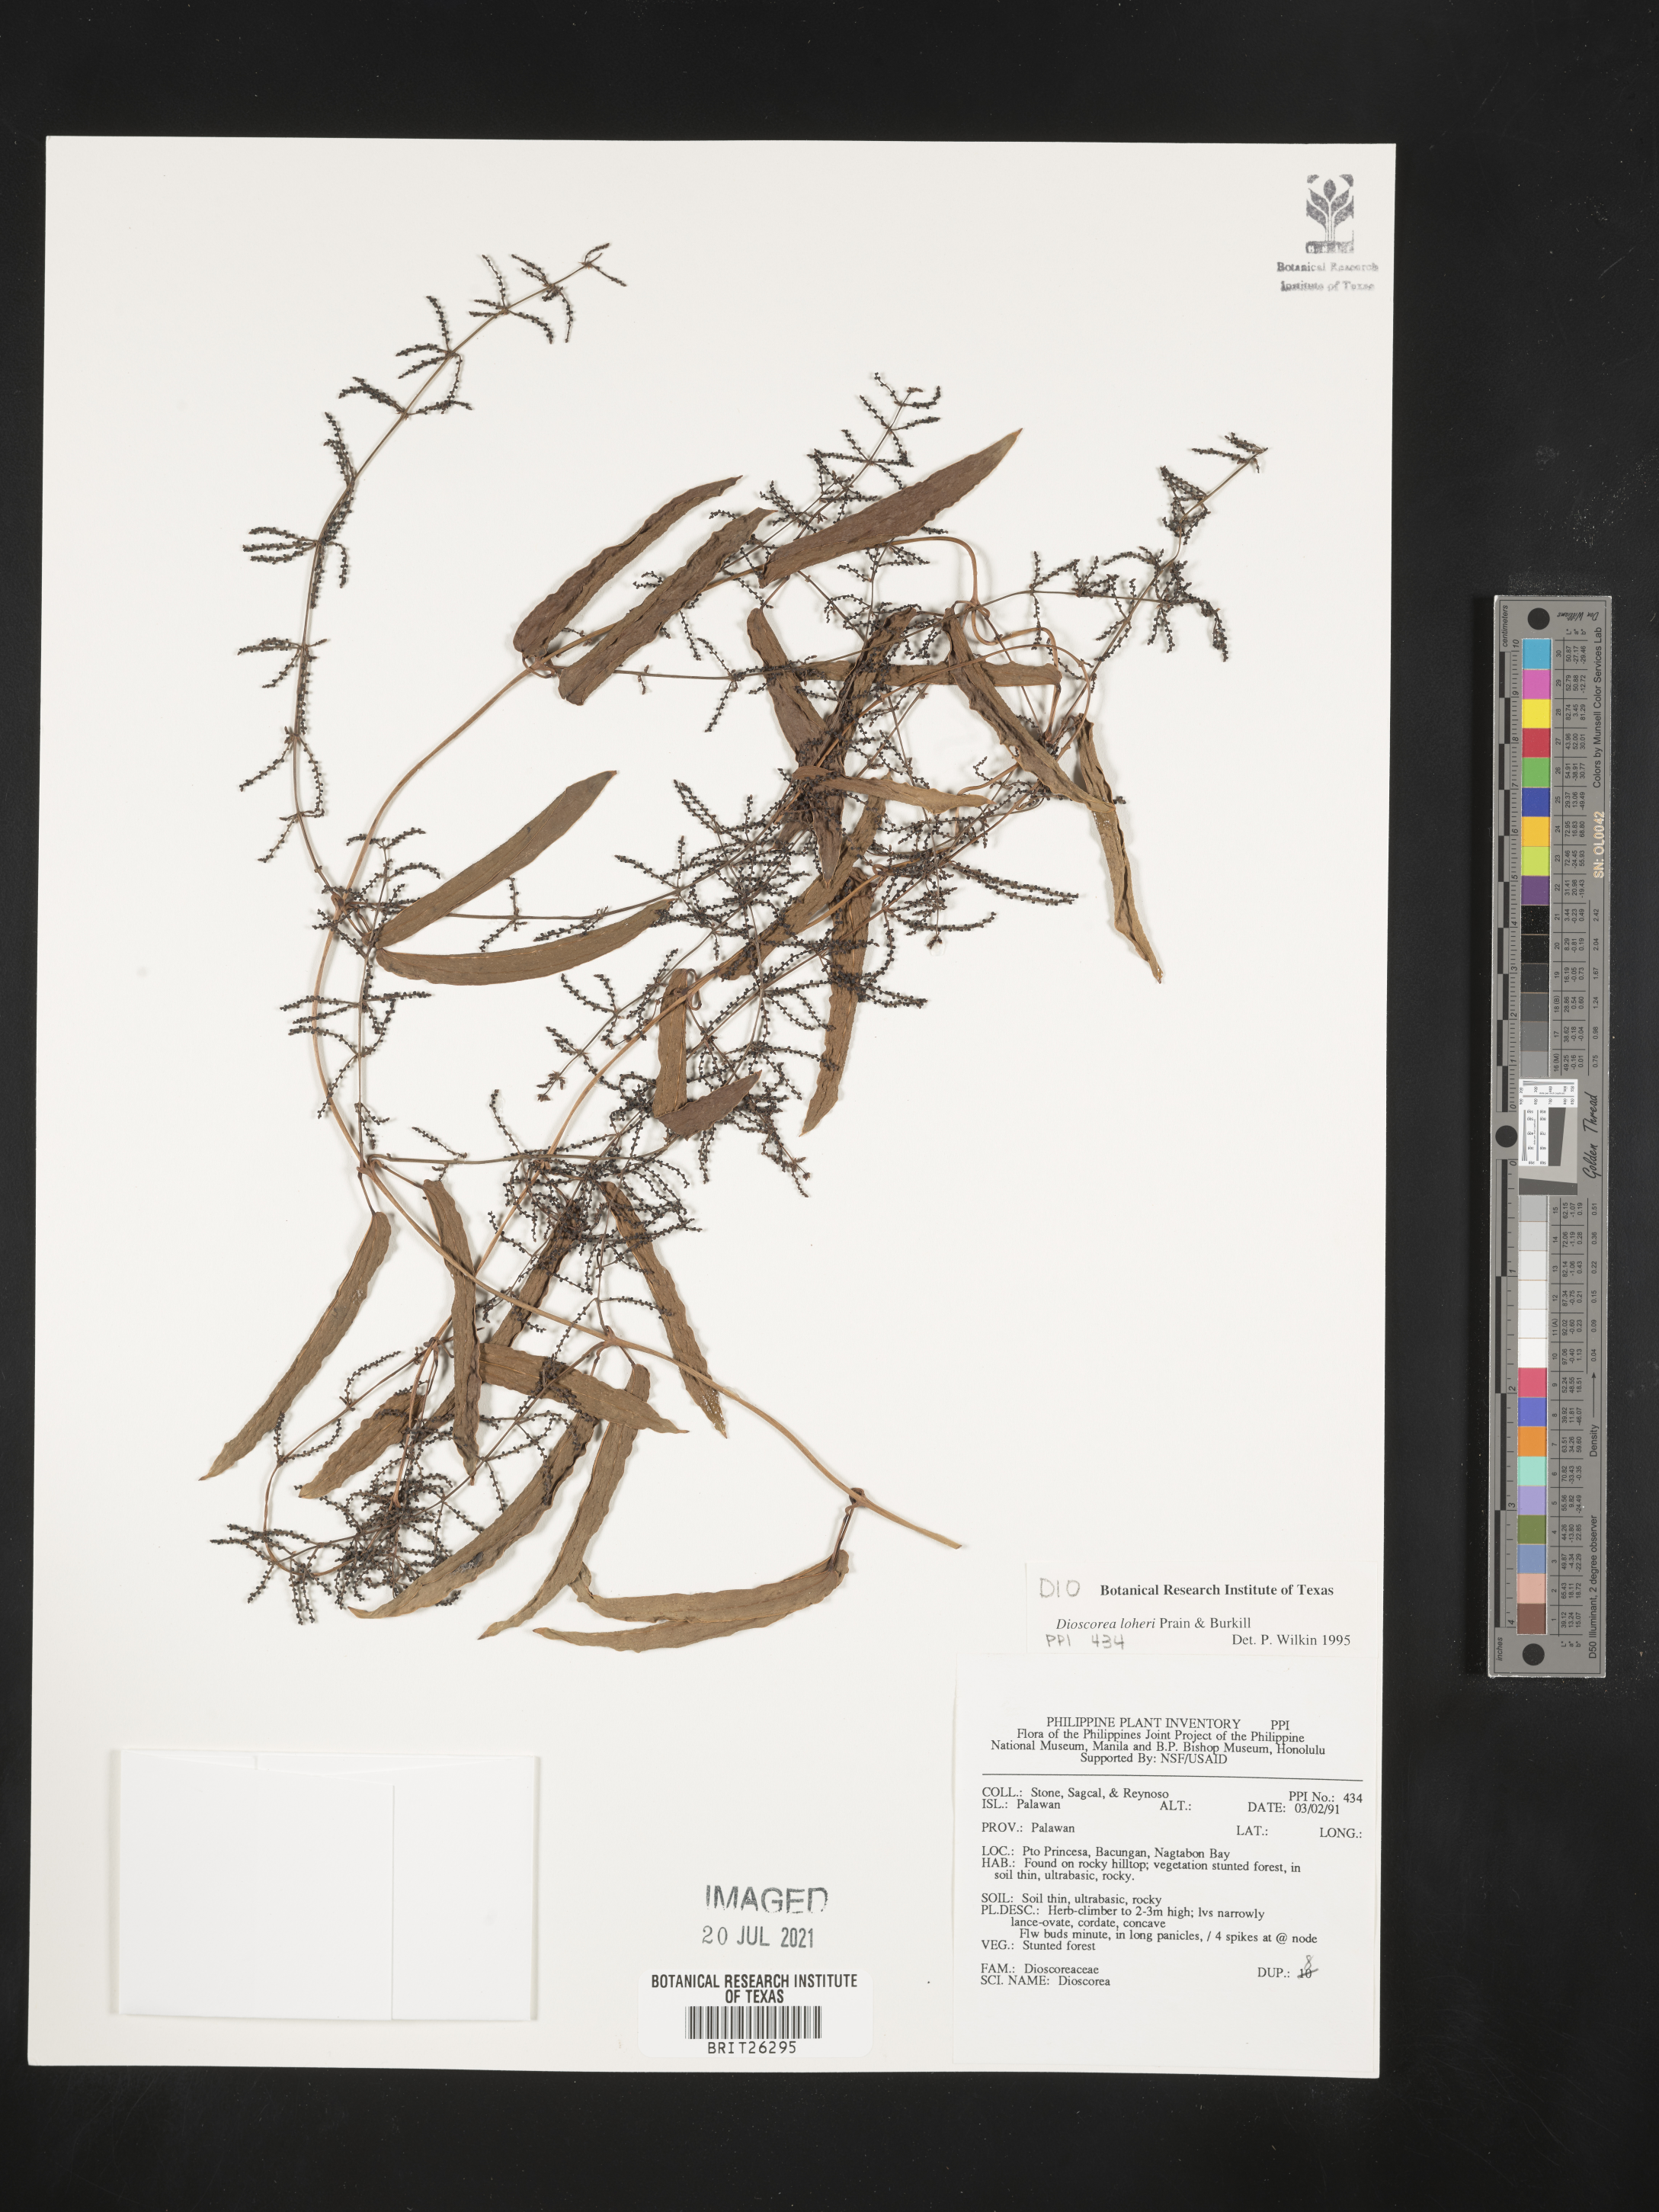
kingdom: Plantae
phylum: Tracheophyta
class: Liliopsida
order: Dioscoreales
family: Dioscoreaceae
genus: Dioscorea
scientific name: Dioscorea loheri
